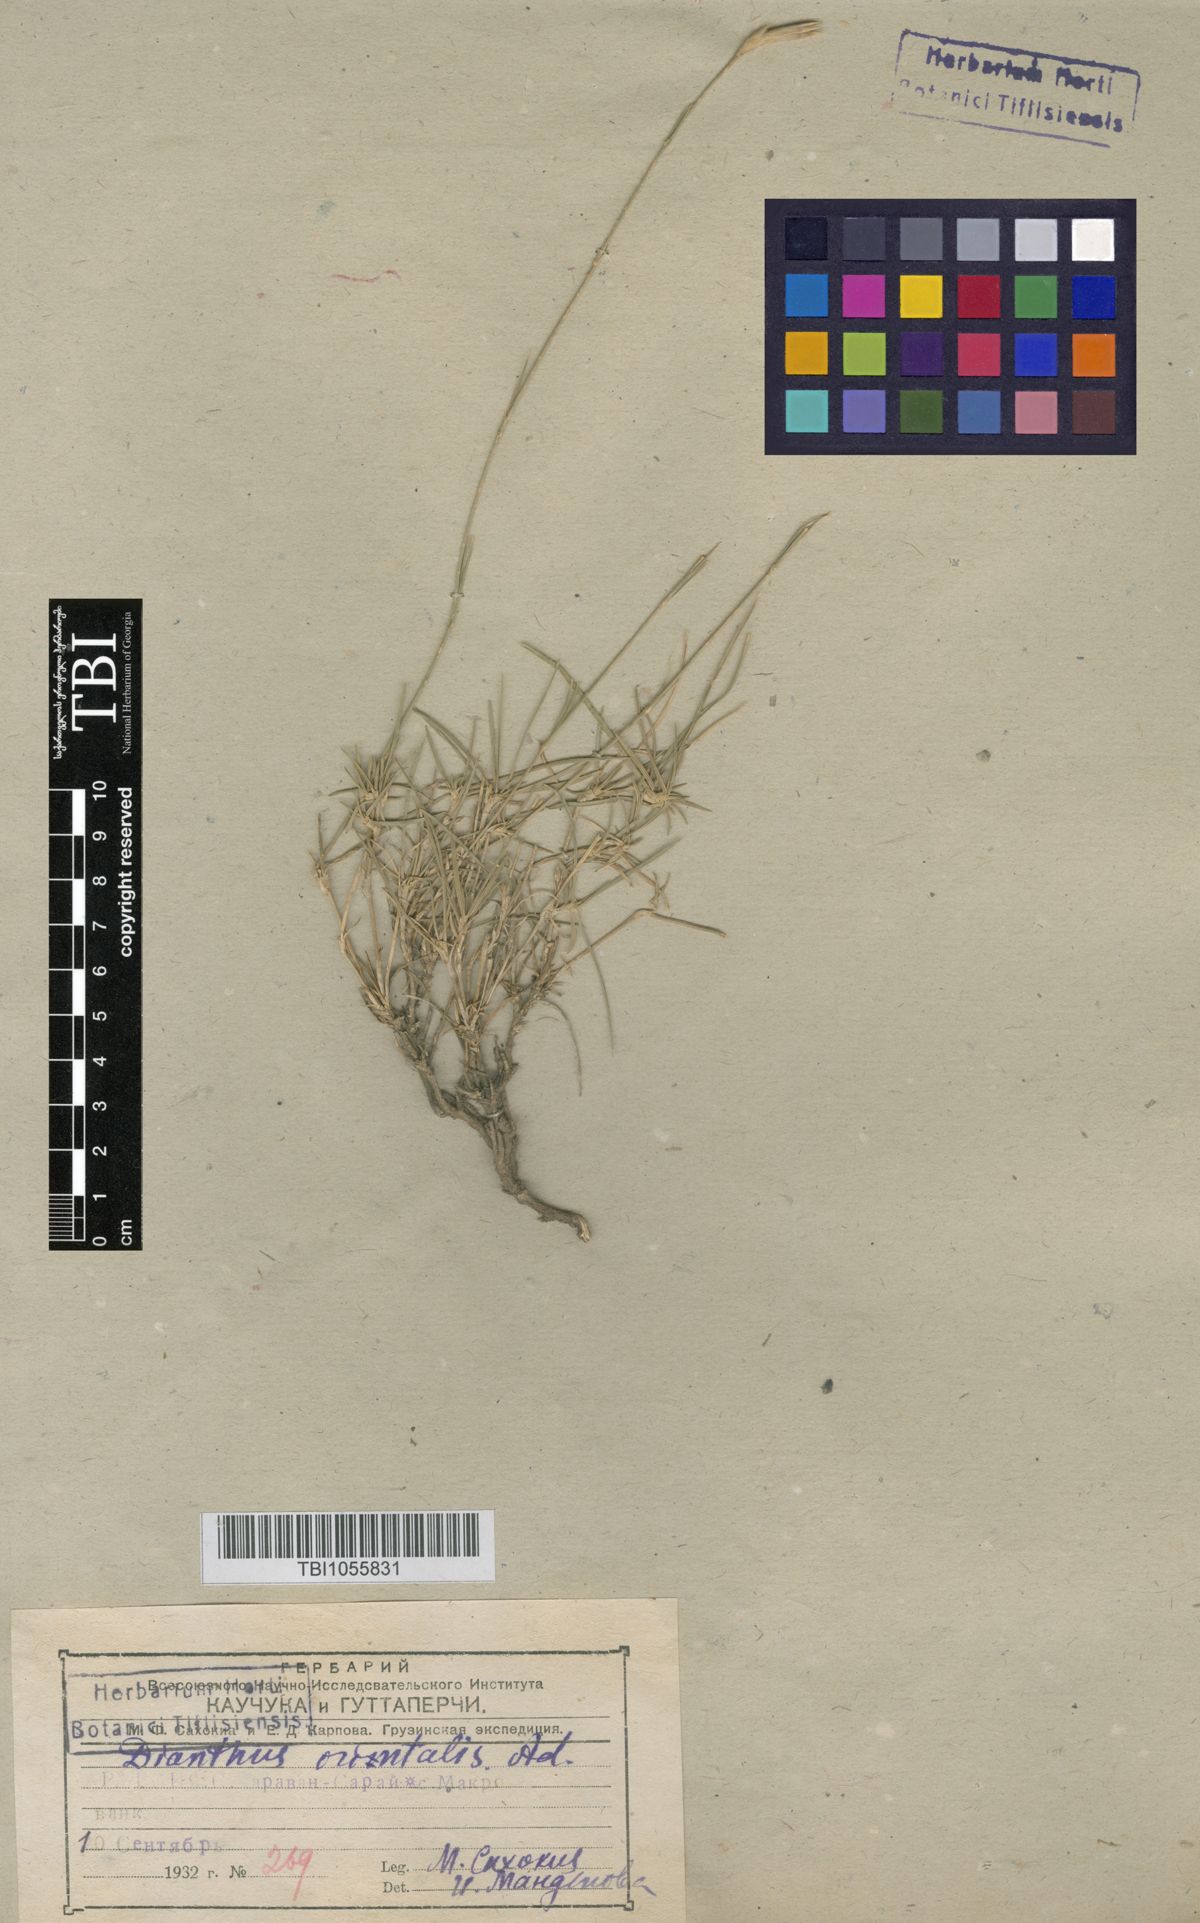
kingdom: Plantae
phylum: Tracheophyta
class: Magnoliopsida
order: Caryophyllales
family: Caryophyllaceae
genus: Dianthus
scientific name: Dianthus orientalis
